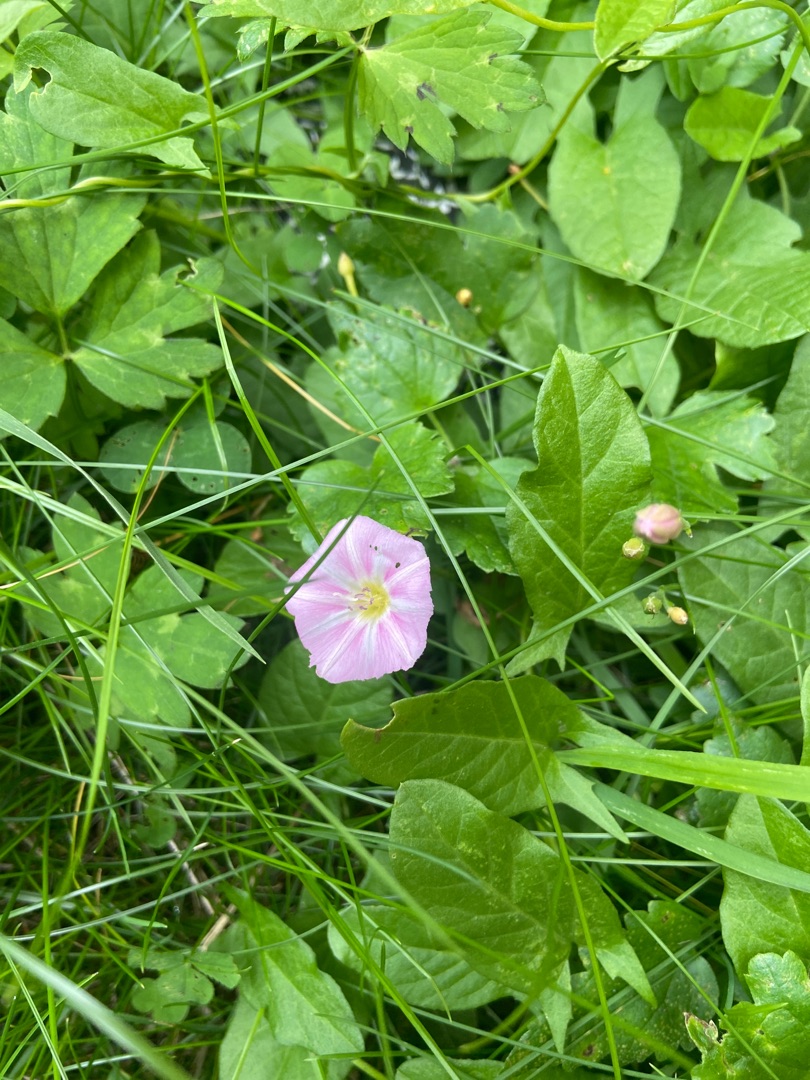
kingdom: Plantae
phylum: Tracheophyta
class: Magnoliopsida
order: Solanales
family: Convolvulaceae
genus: Convolvulus
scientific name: Convolvulus arvensis
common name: Ager-snerle
